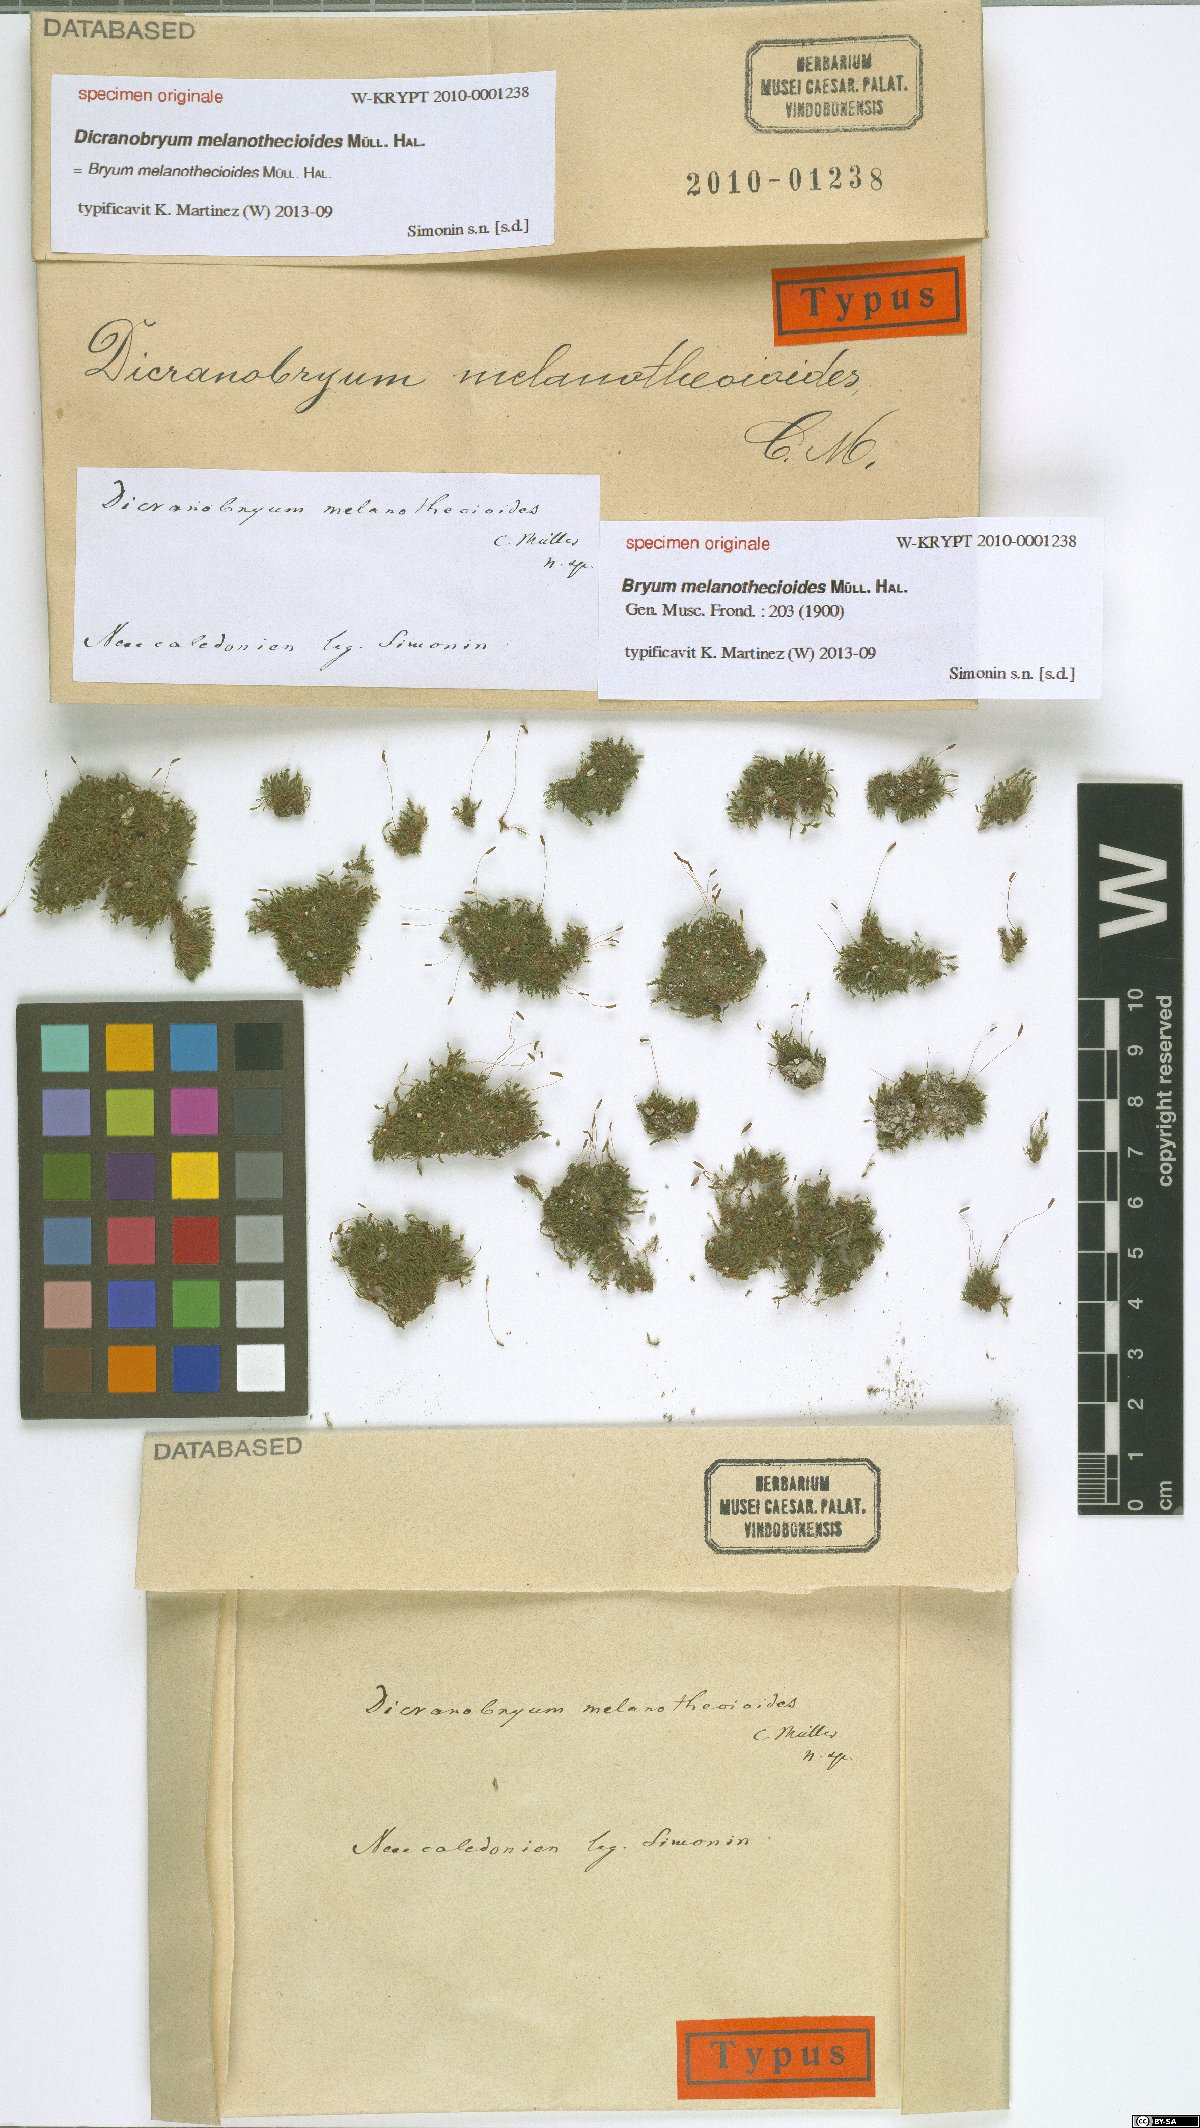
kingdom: Plantae
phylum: Bryophyta
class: Bryopsida
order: Bryales
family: Bryaceae
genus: Bryum
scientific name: Bryum
